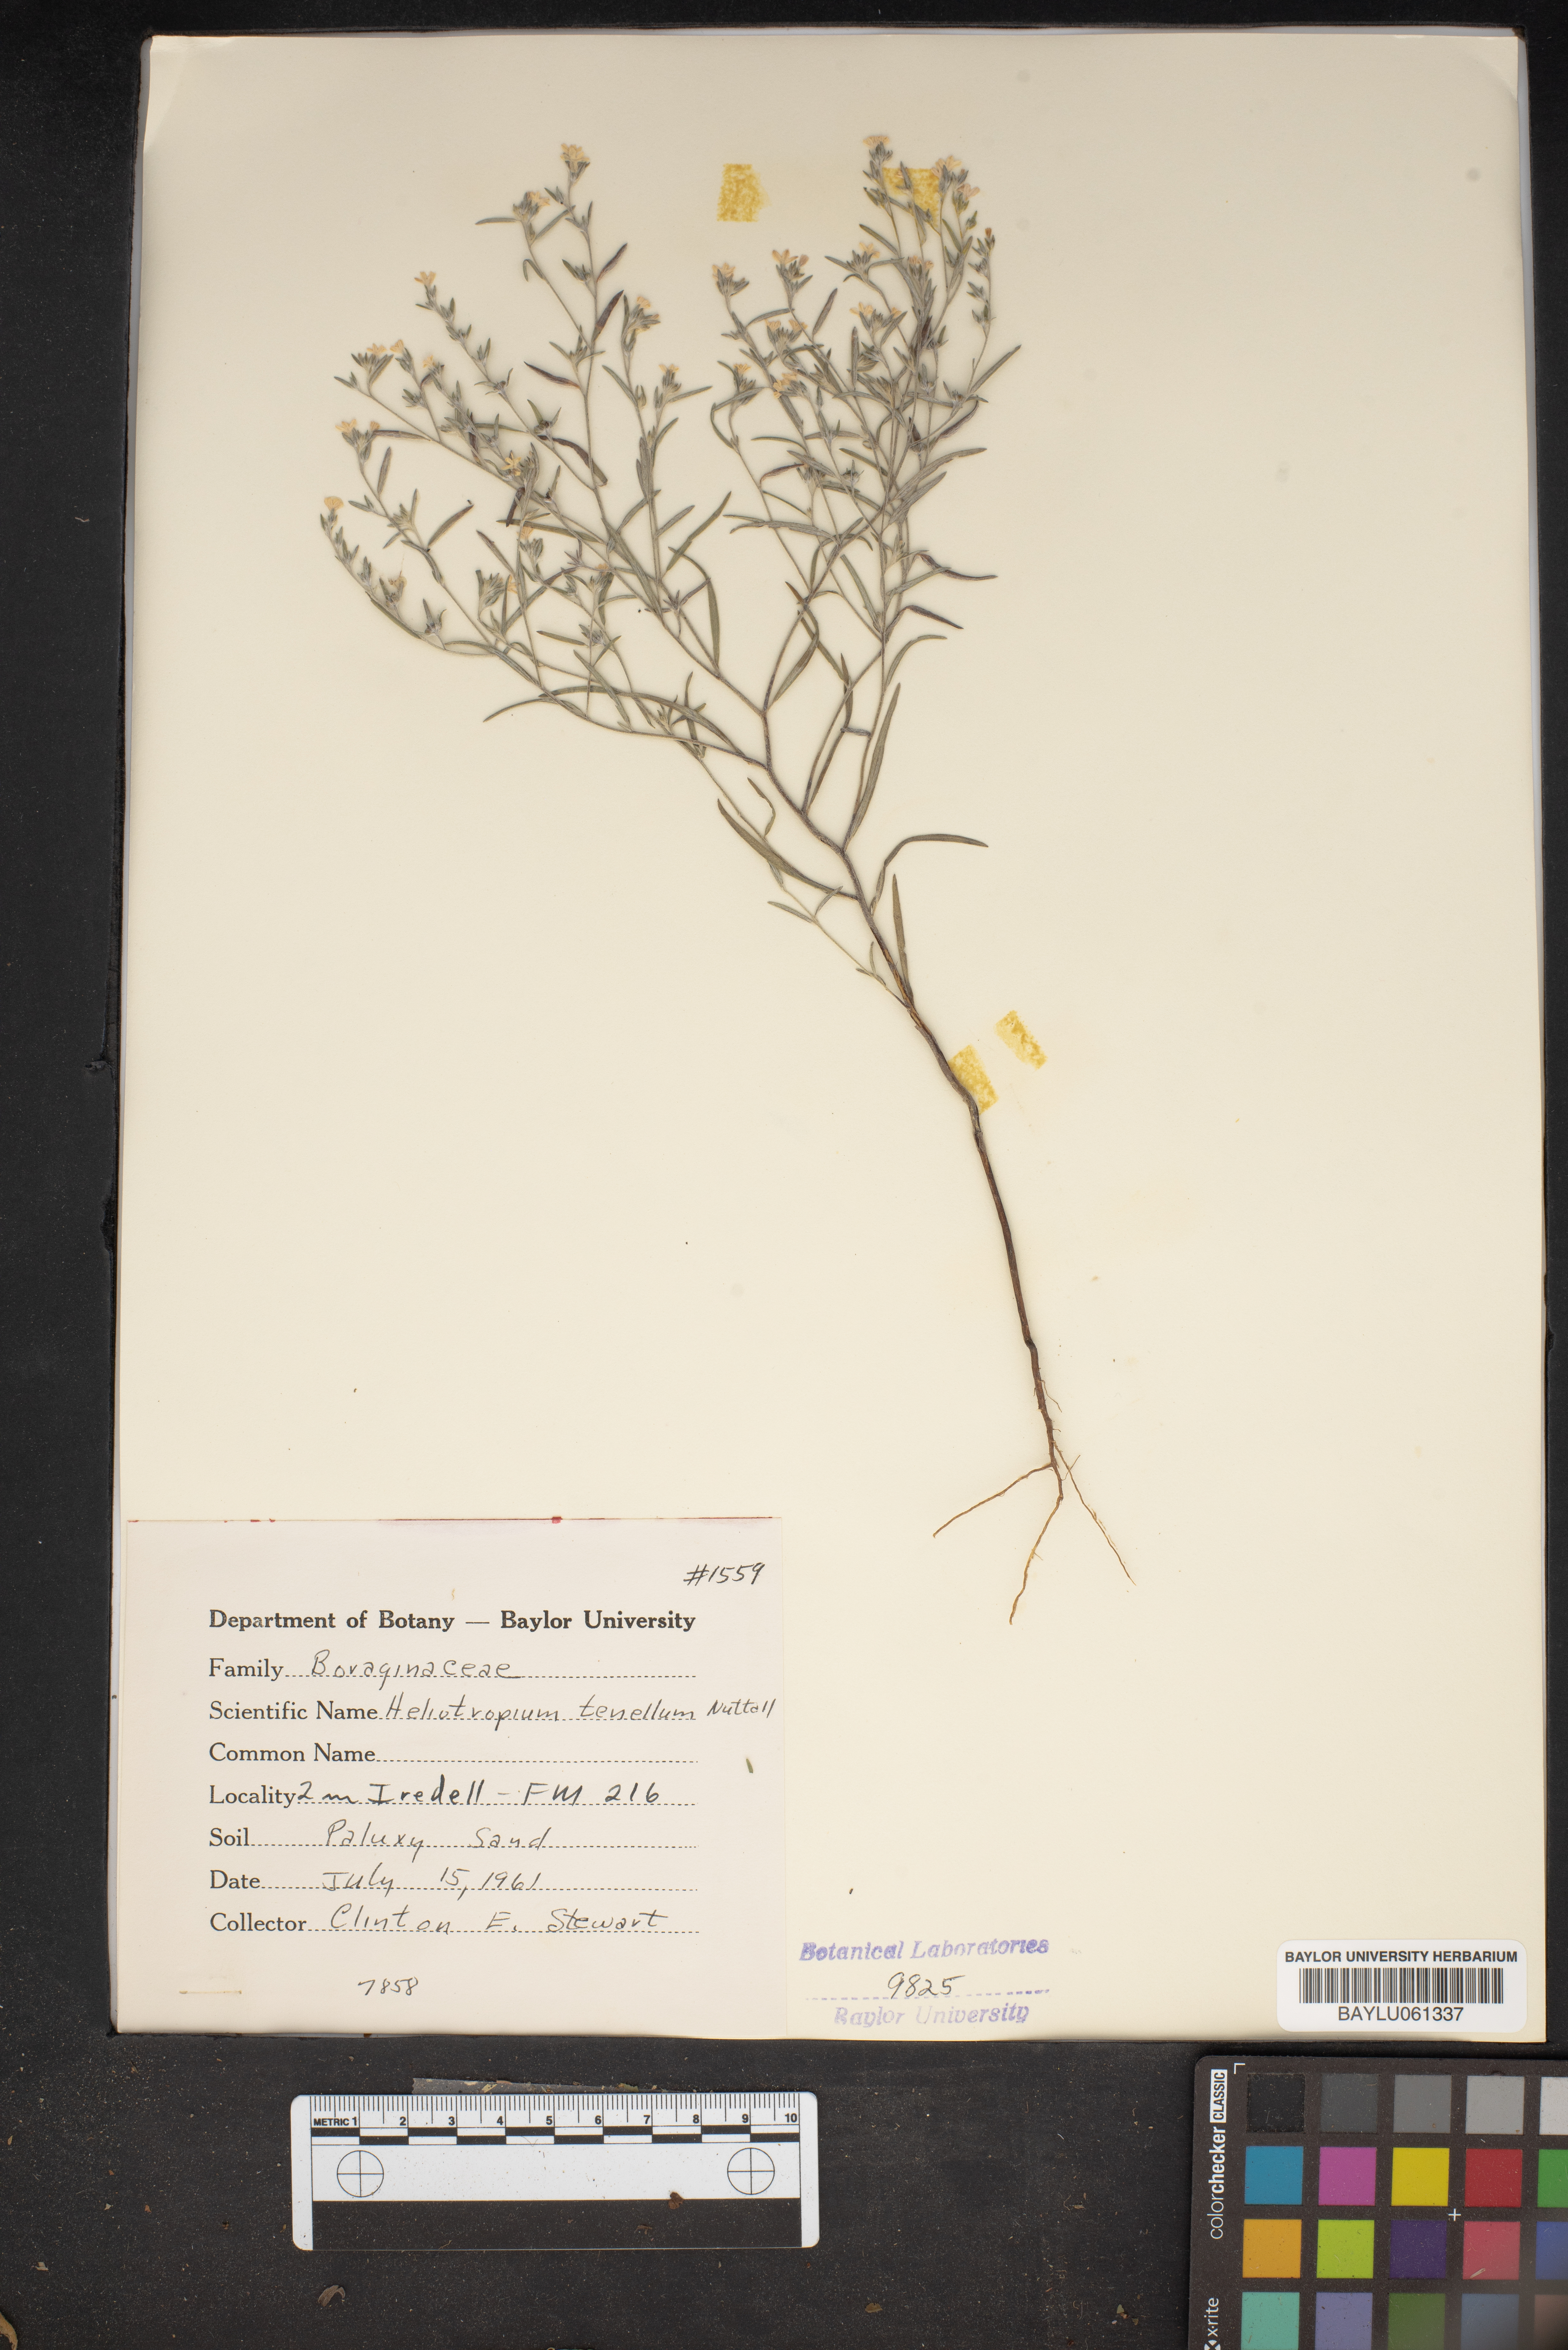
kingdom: Plantae
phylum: Tracheophyta
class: Magnoliopsida
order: Boraginales
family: Heliotropiaceae
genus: Euploca
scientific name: Euploca tenella
